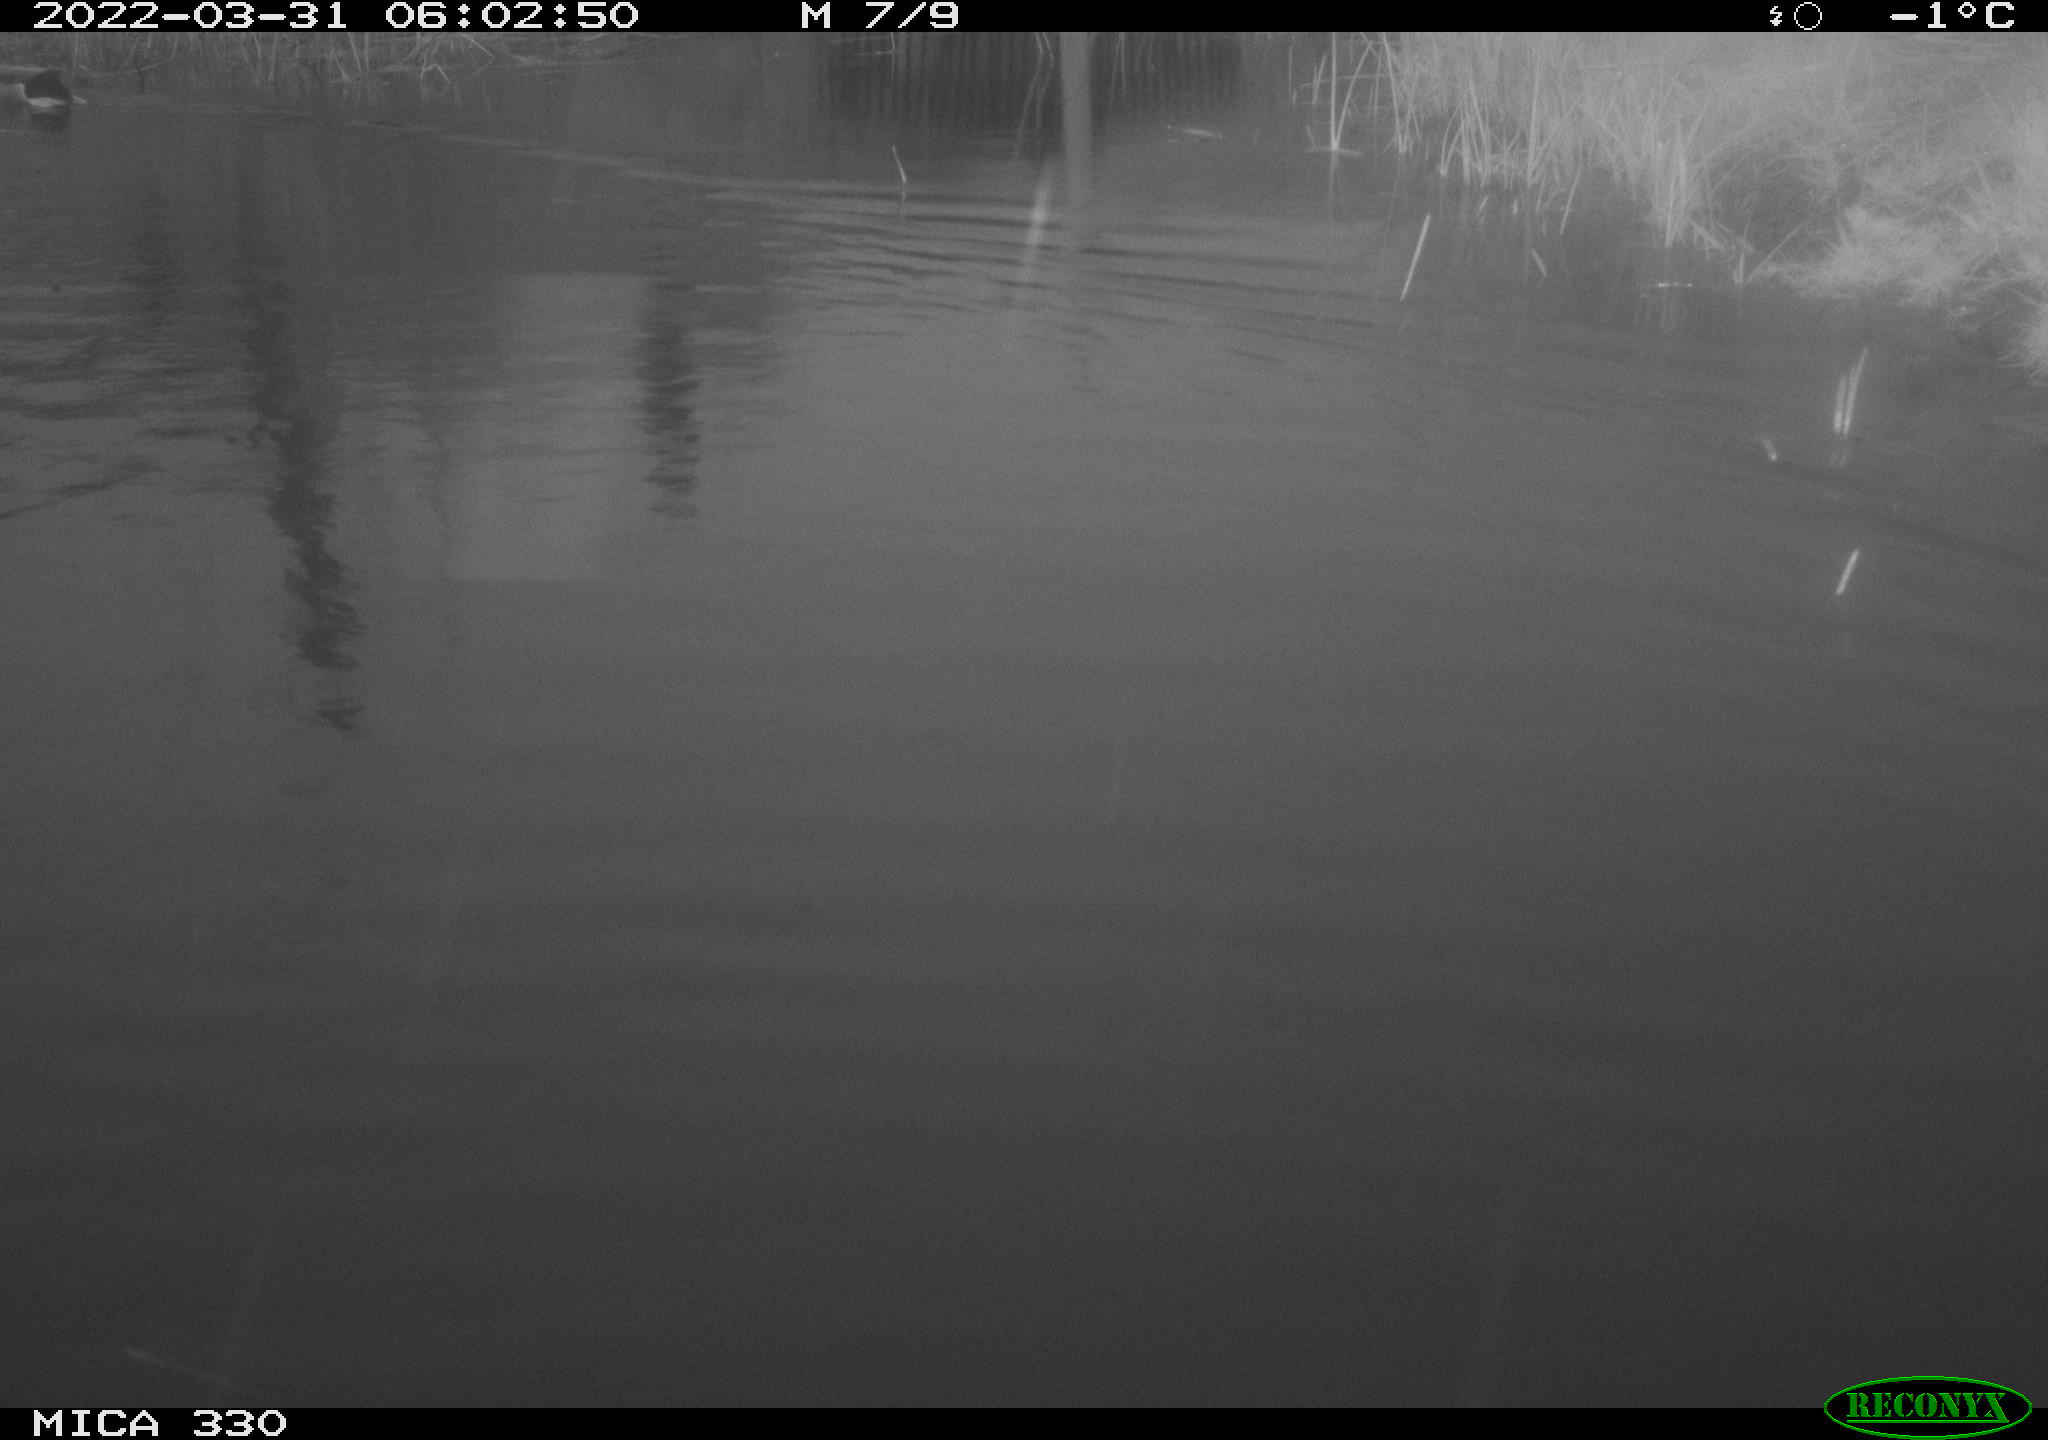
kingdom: Animalia
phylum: Chordata
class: Aves
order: Anseriformes
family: Anatidae
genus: Anas
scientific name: Anas platyrhynchos
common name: Mallard
